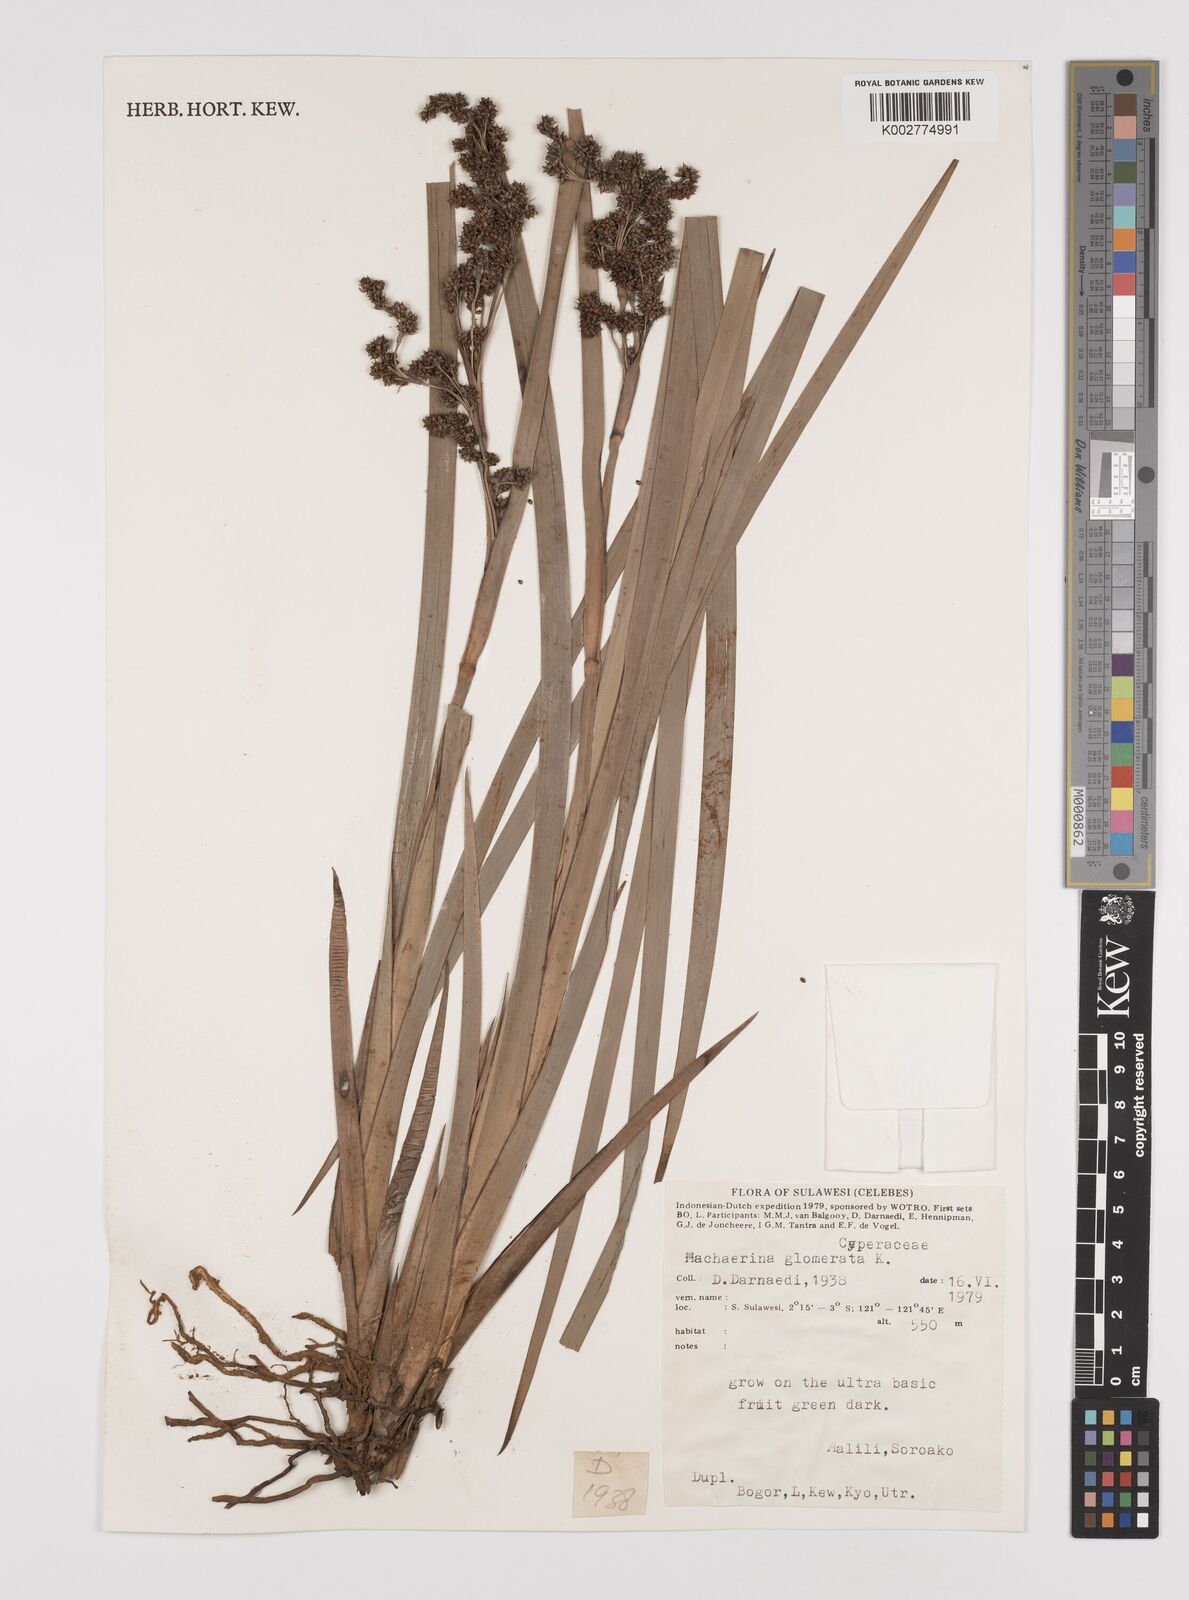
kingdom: Plantae
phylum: Tracheophyta
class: Liliopsida
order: Poales
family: Cyperaceae
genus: Machaerina
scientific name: Machaerina glomerata
